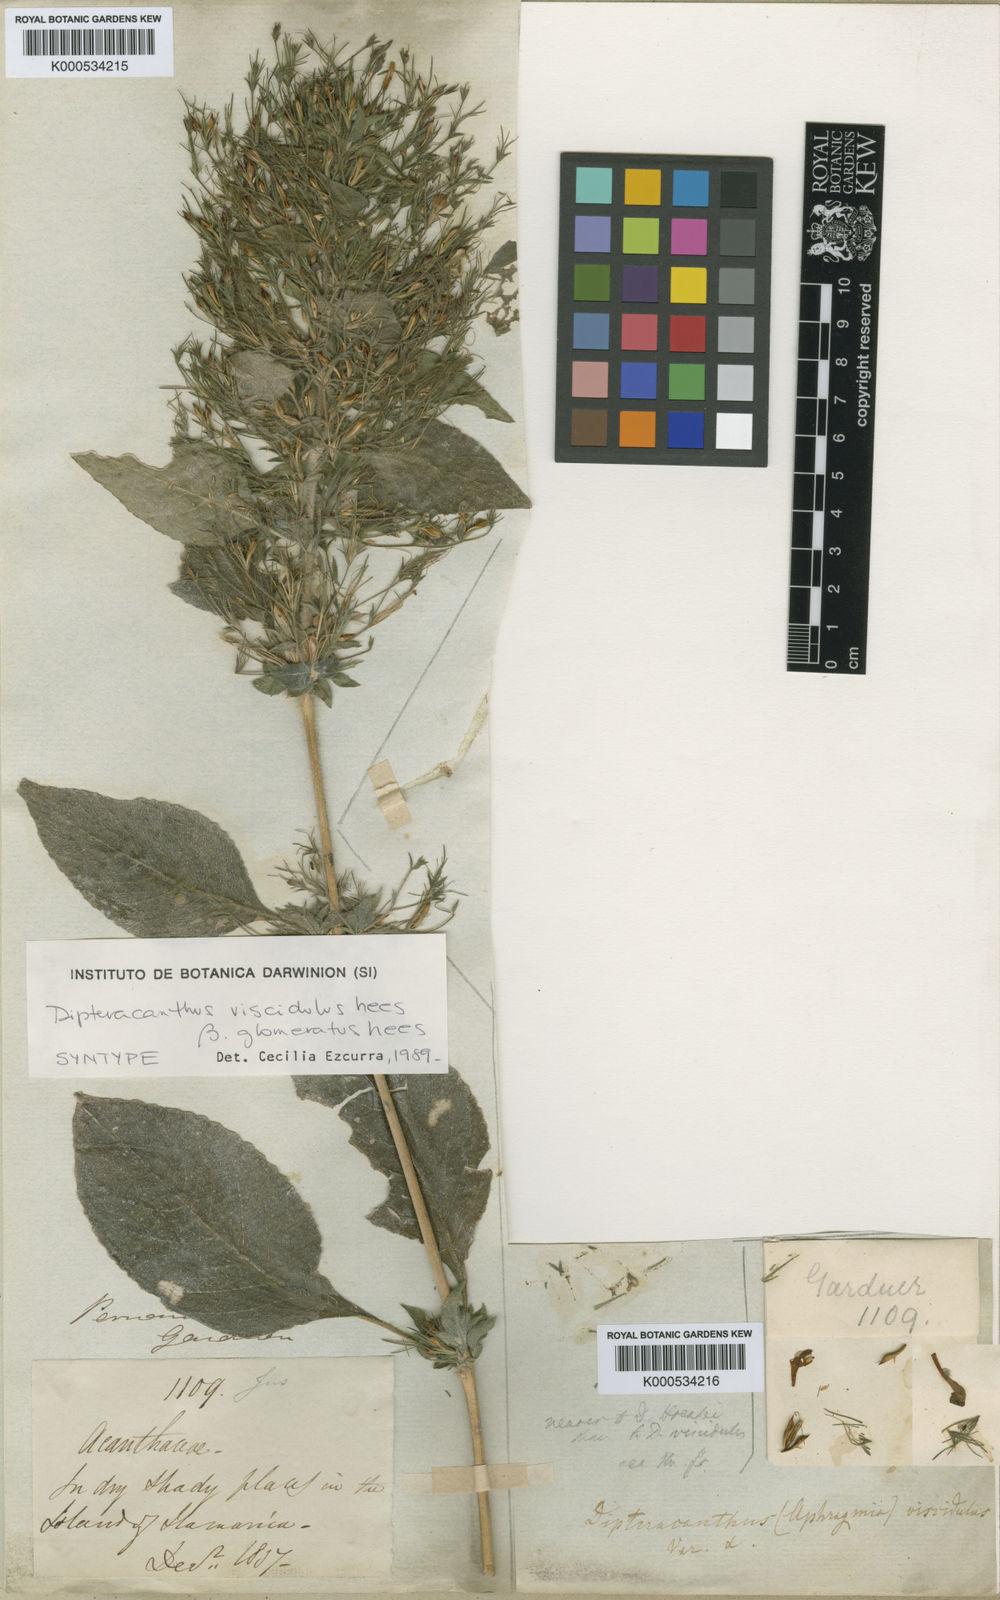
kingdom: Plantae
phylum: Tracheophyta
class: Magnoliopsida
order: Lamiales
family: Acanthaceae
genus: Ruellia
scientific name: Ruellia
